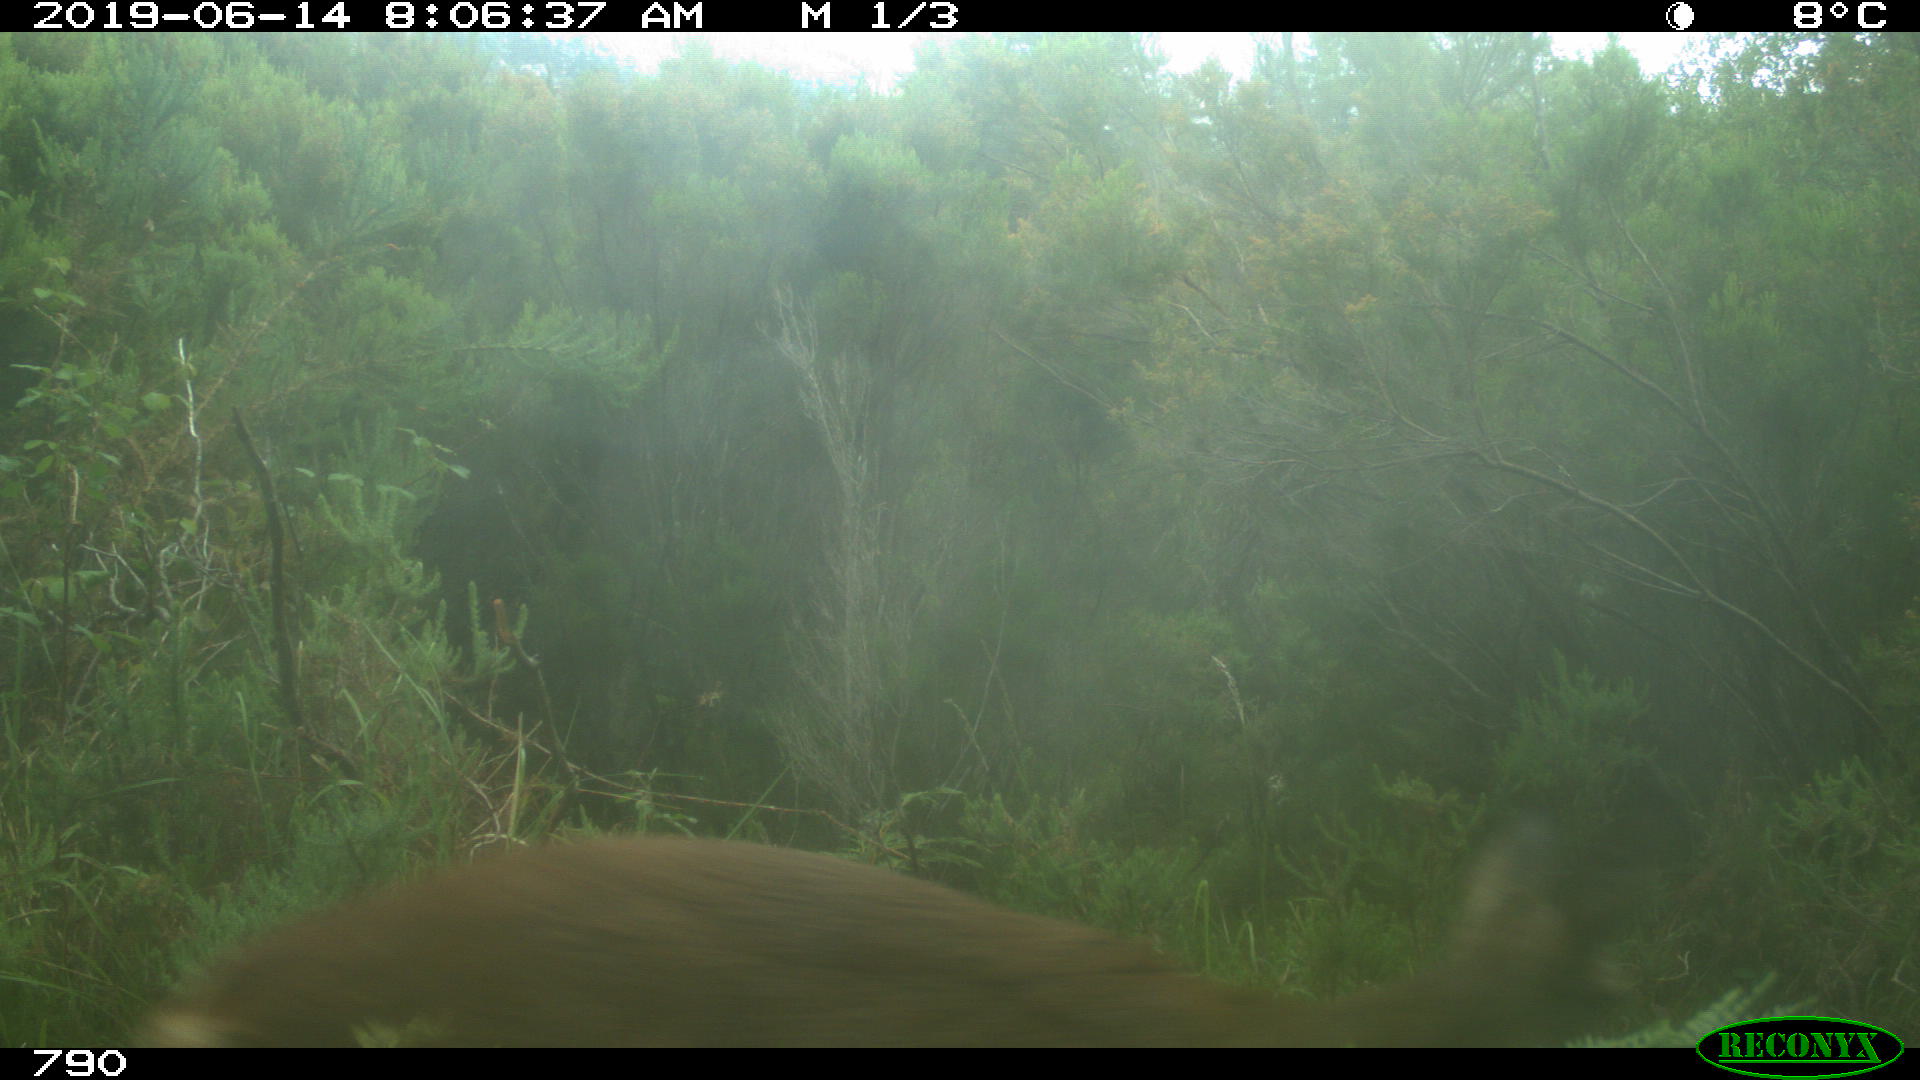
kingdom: Animalia
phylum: Chordata
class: Mammalia
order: Artiodactyla
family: Cervidae
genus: Capreolus
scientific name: Capreolus capreolus
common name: Western roe deer
